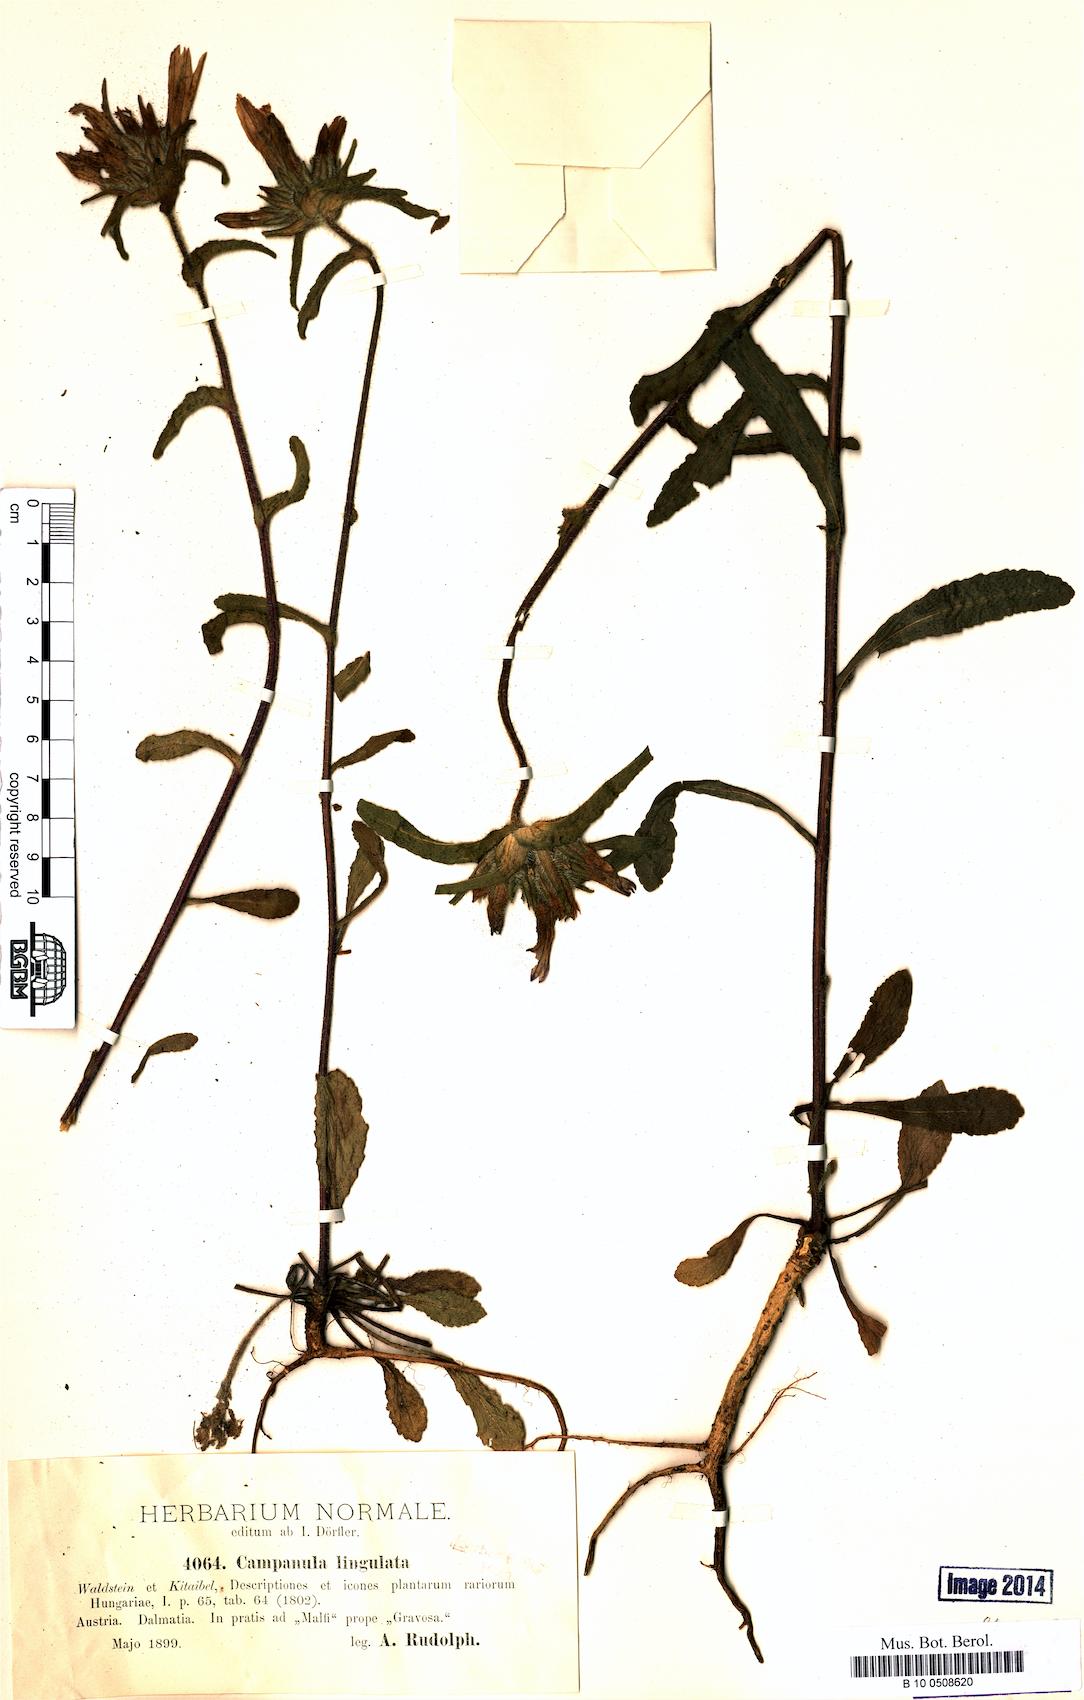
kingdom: Plantae
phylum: Tracheophyta
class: Magnoliopsida
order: Asterales
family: Campanulaceae
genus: Campanula
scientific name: Campanula lingulata
